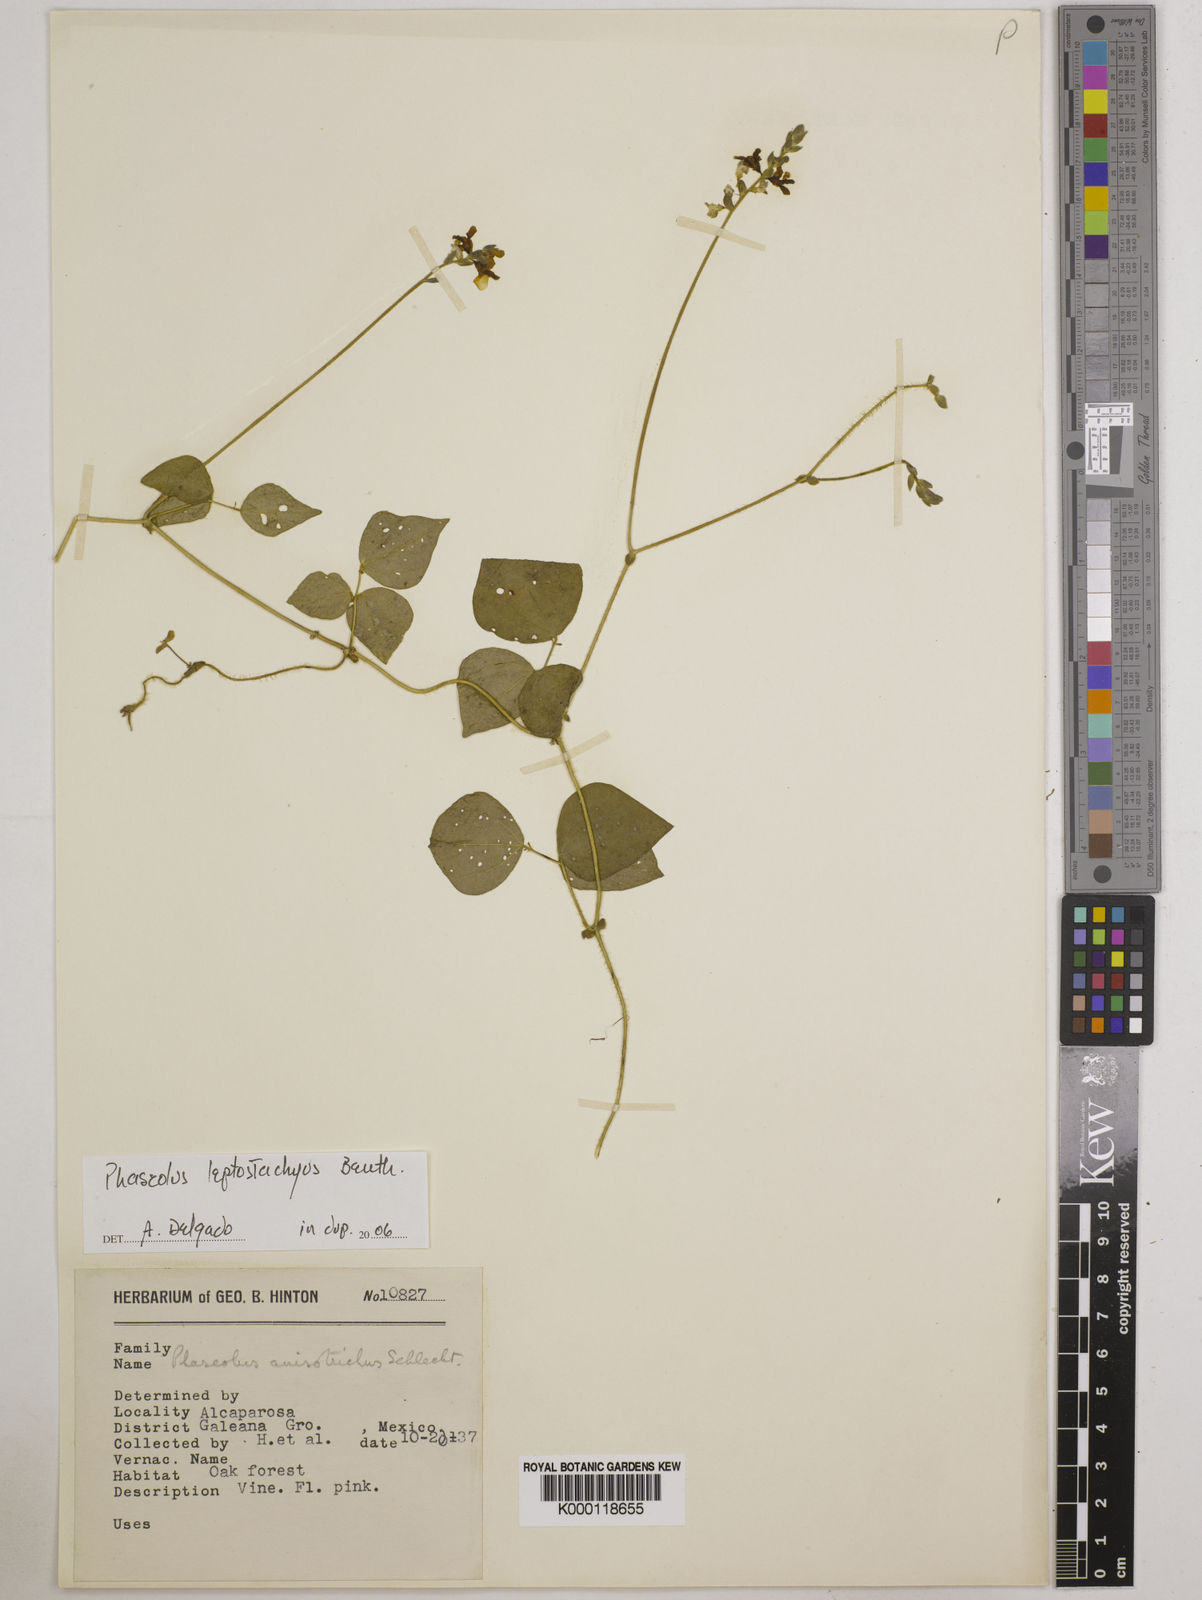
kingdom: Plantae
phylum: Tracheophyta
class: Magnoliopsida
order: Fabales
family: Fabaceae
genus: Phaseolus
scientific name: Phaseolus
